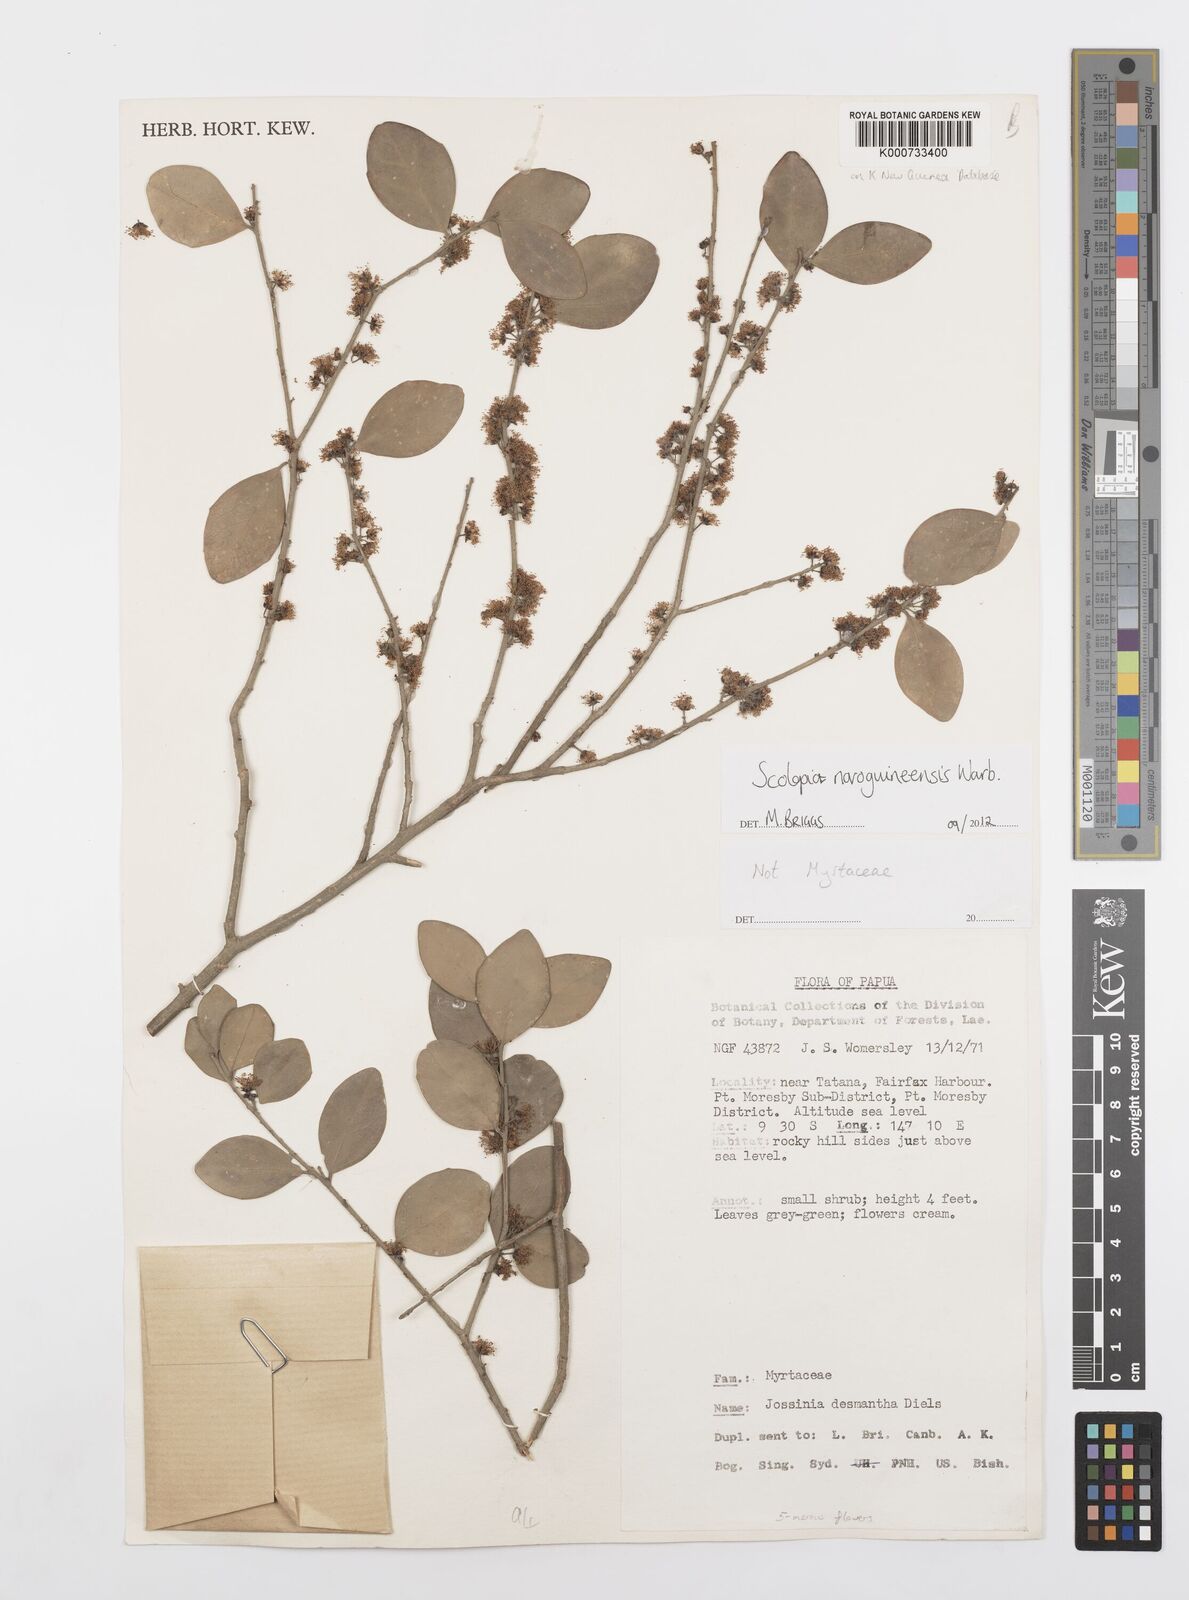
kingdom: Plantae
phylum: Tracheophyta
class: Magnoliopsida
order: Malpighiales
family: Salicaceae
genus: Scolopia
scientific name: Scolopia novoguineensis
